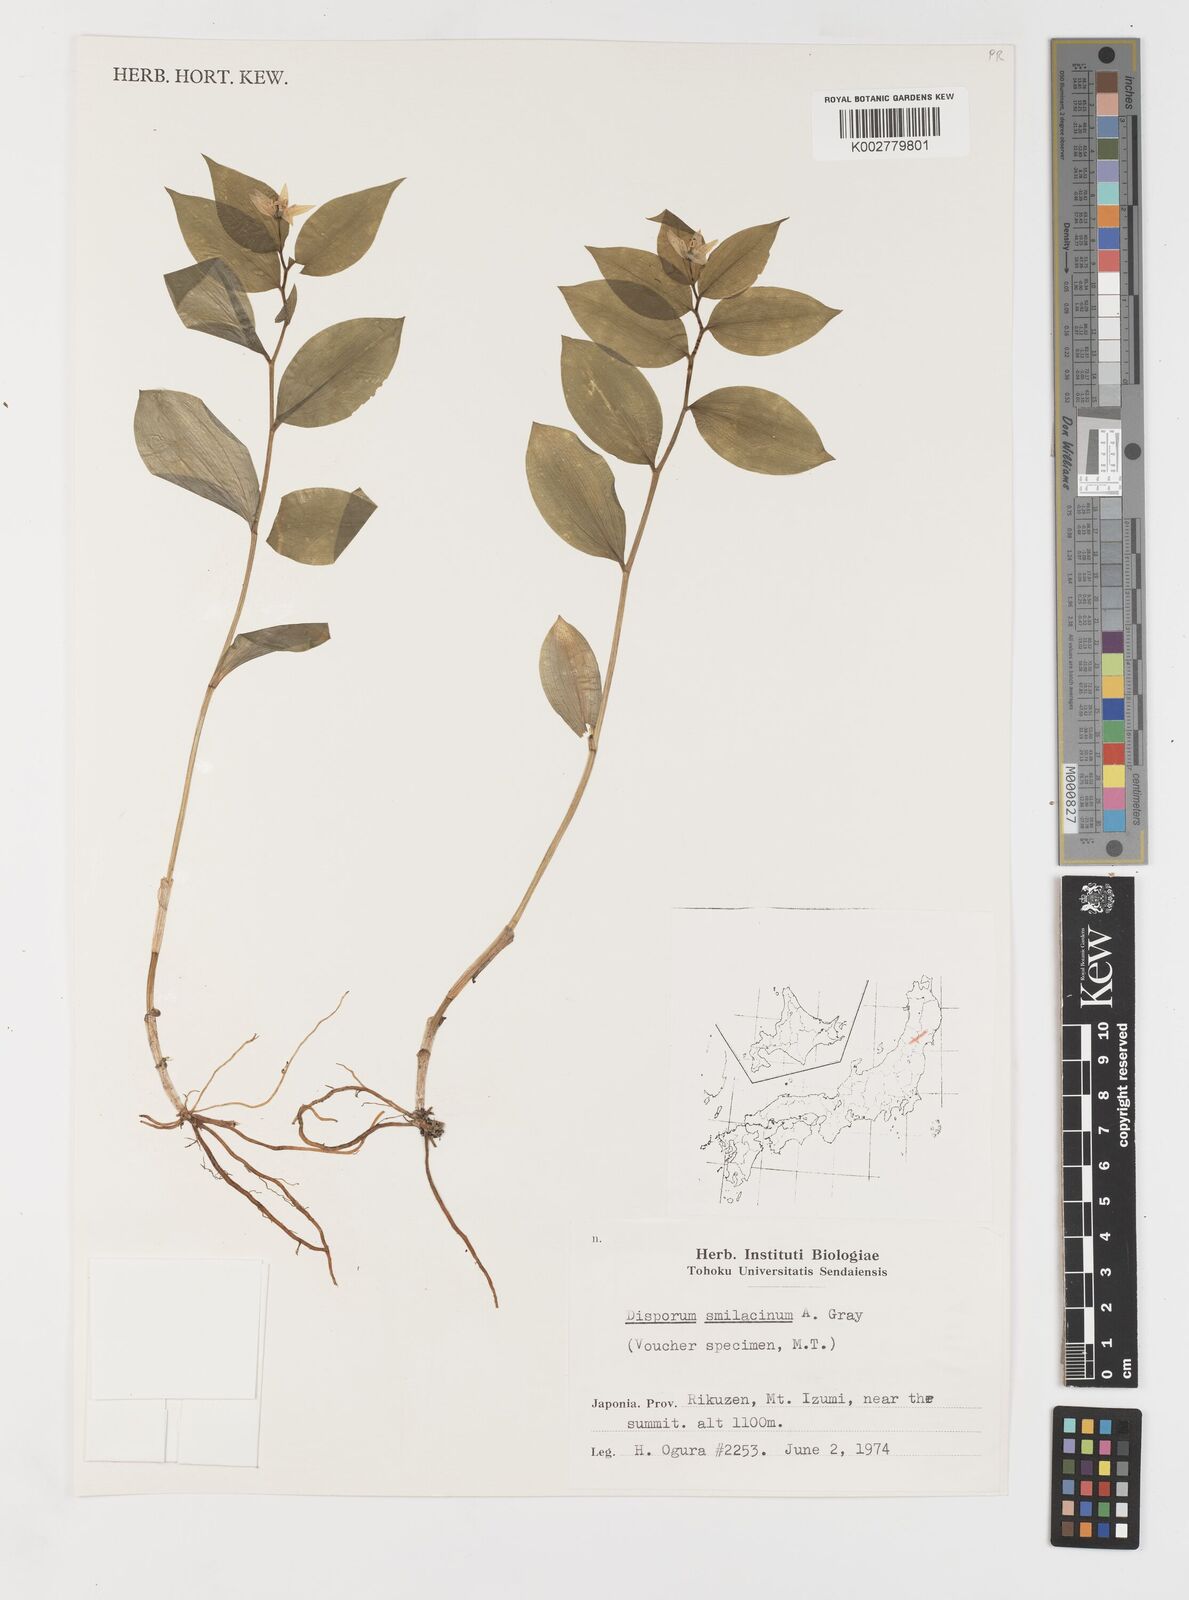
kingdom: Plantae
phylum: Tracheophyta
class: Liliopsida
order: Liliales
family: Colchicaceae
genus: Disporum
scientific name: Disporum smilacinum
